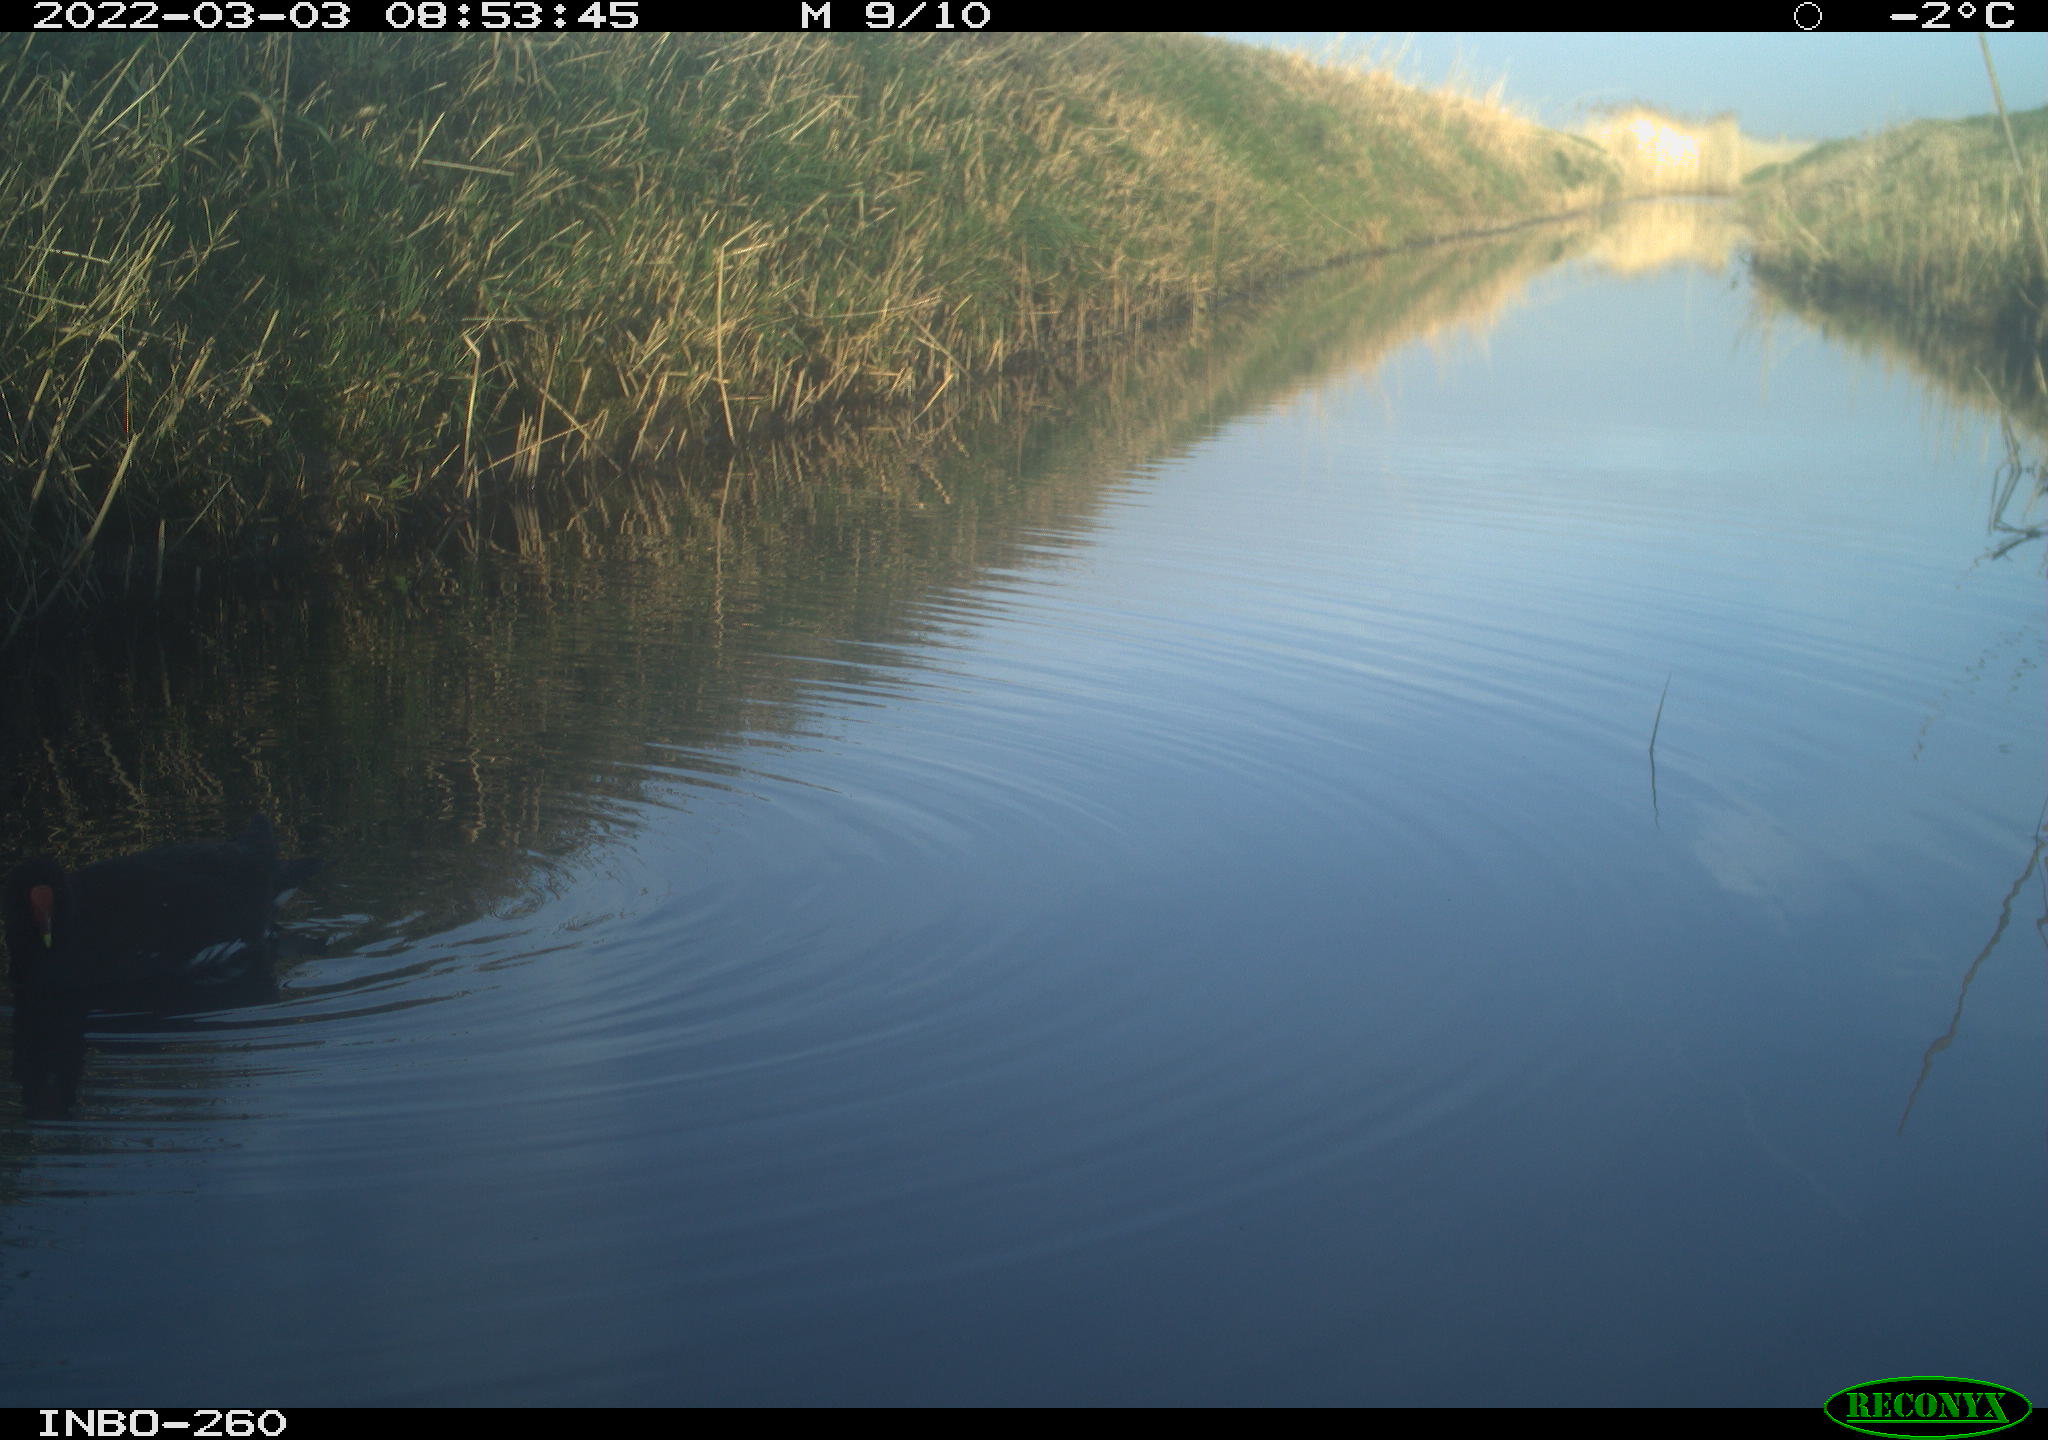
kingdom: Animalia
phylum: Chordata
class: Aves
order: Gruiformes
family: Rallidae
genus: Gallinula
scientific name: Gallinula chloropus
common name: Common moorhen
